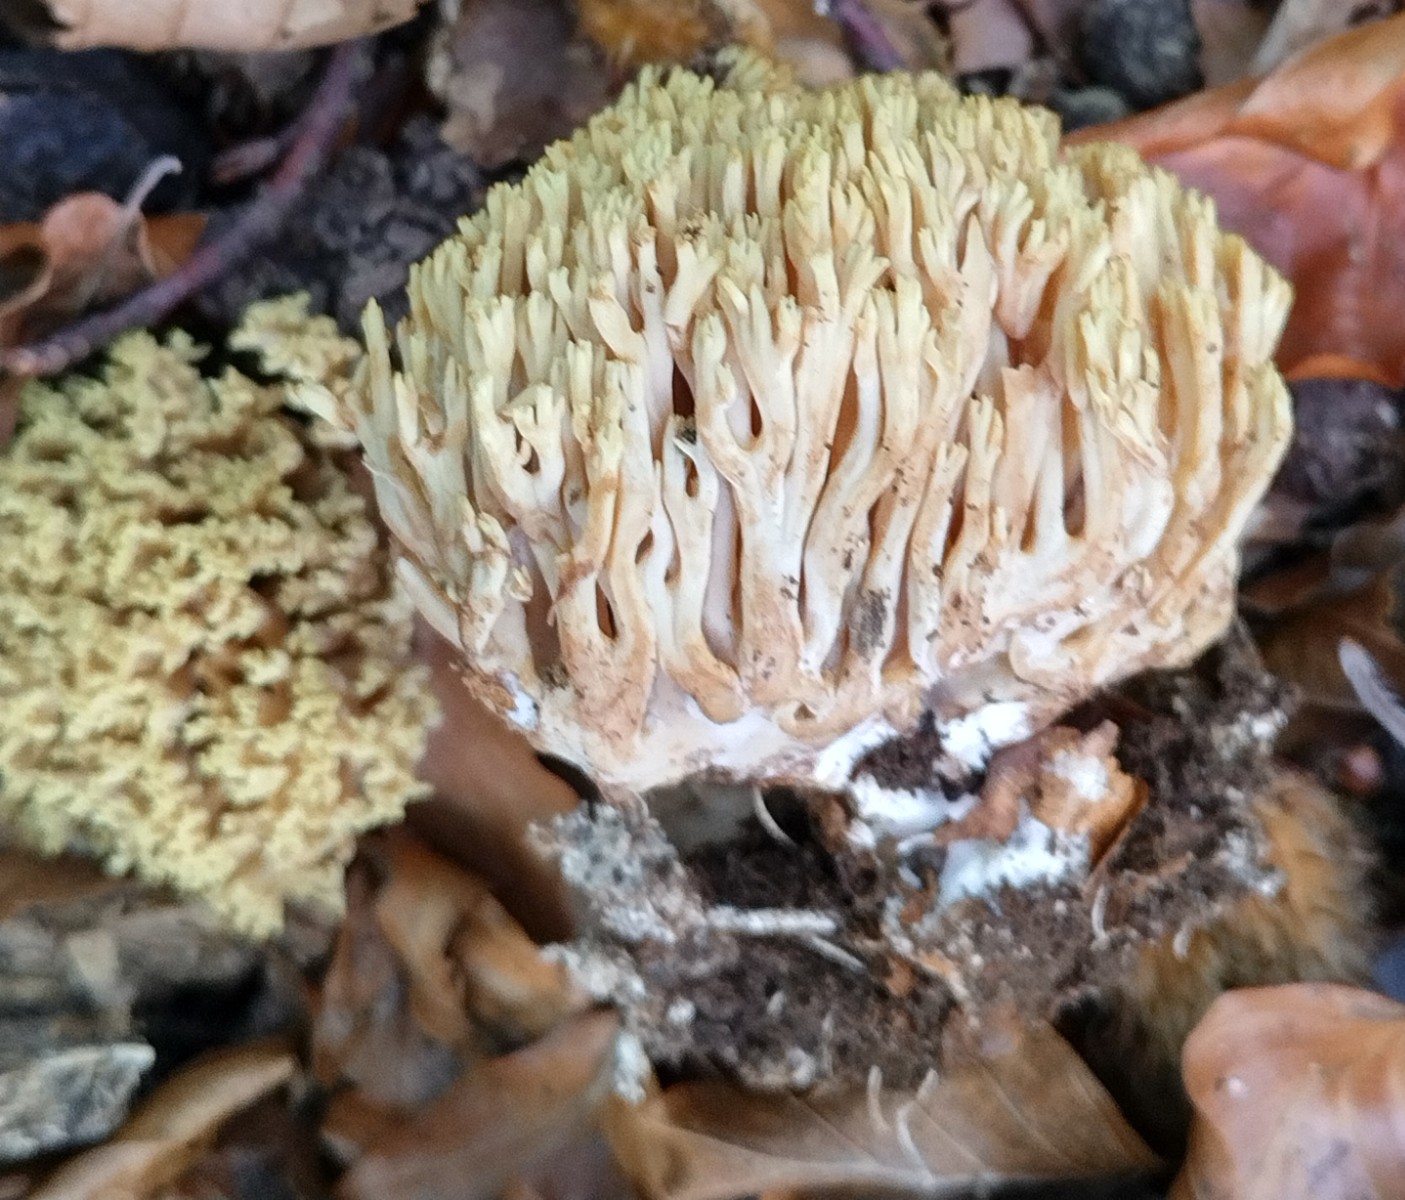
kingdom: Fungi
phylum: Basidiomycota
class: Agaricomycetes
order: Gomphales
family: Gomphaceae
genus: Ramaria
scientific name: Ramaria stricta
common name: rank koralsvamp
